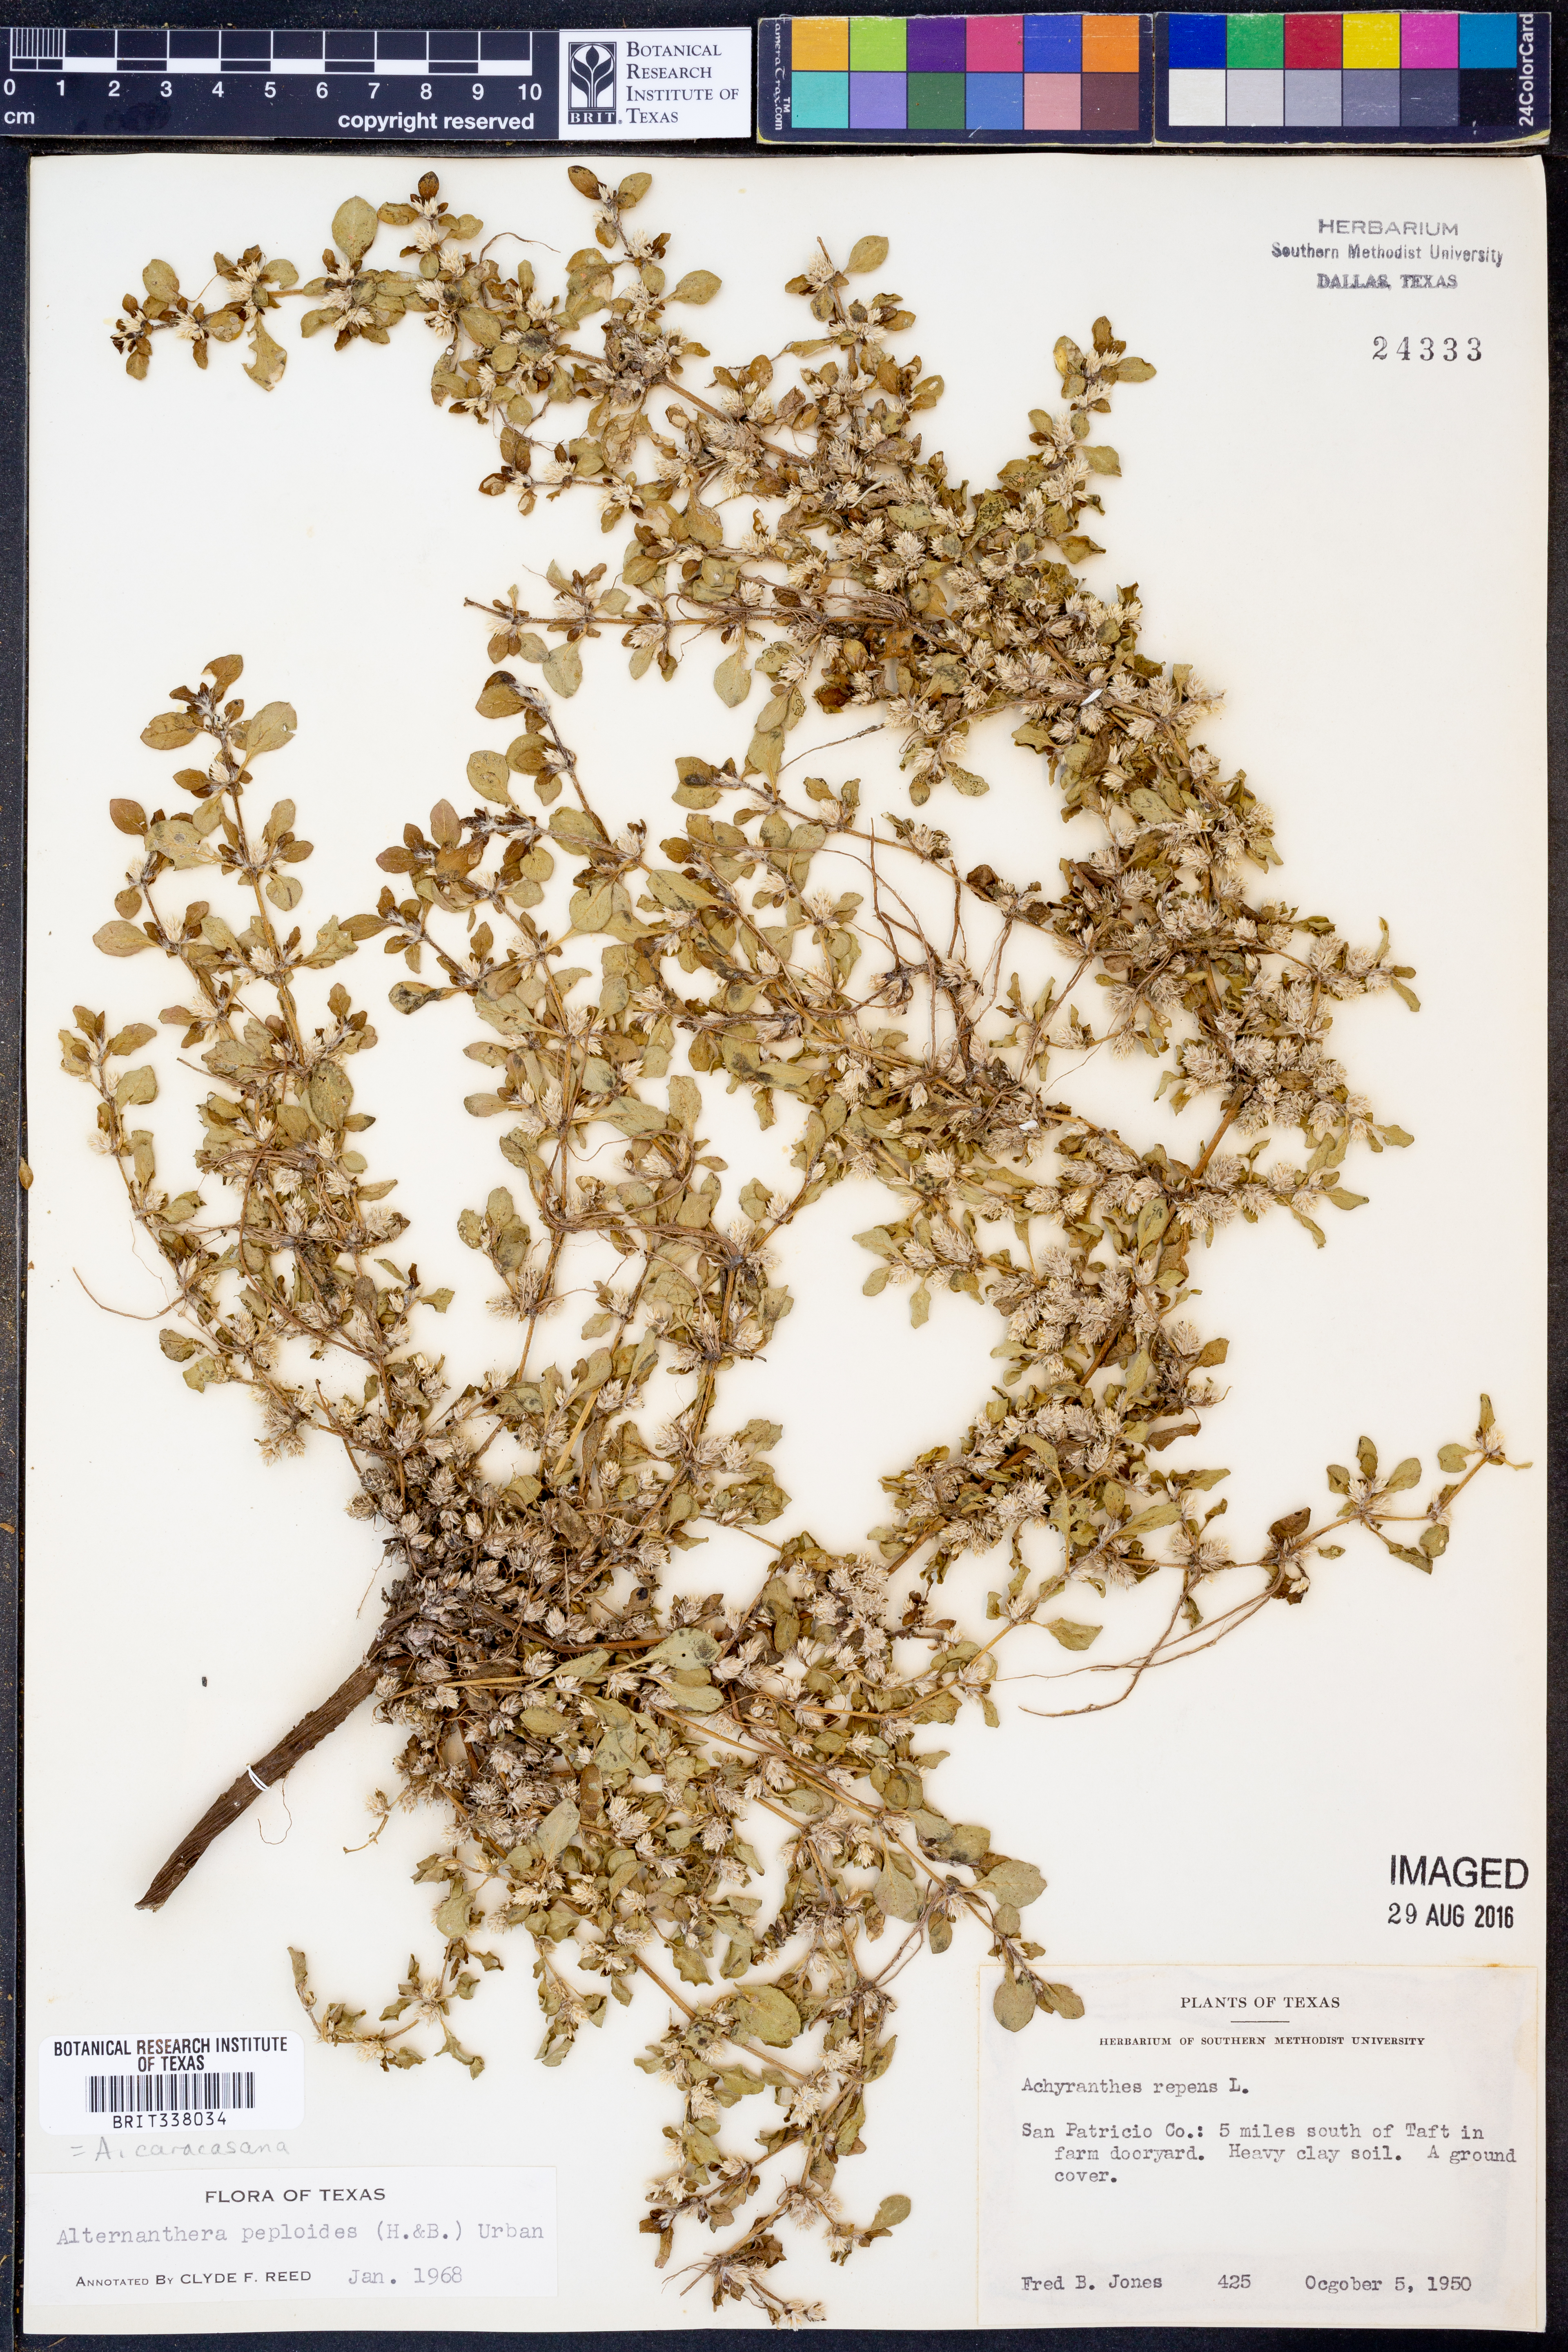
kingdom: Plantae
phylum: Tracheophyta
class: Magnoliopsida
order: Caryophyllales
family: Amaranthaceae
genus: Alternanthera
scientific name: Alternanthera caracasana
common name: Washerwoman
